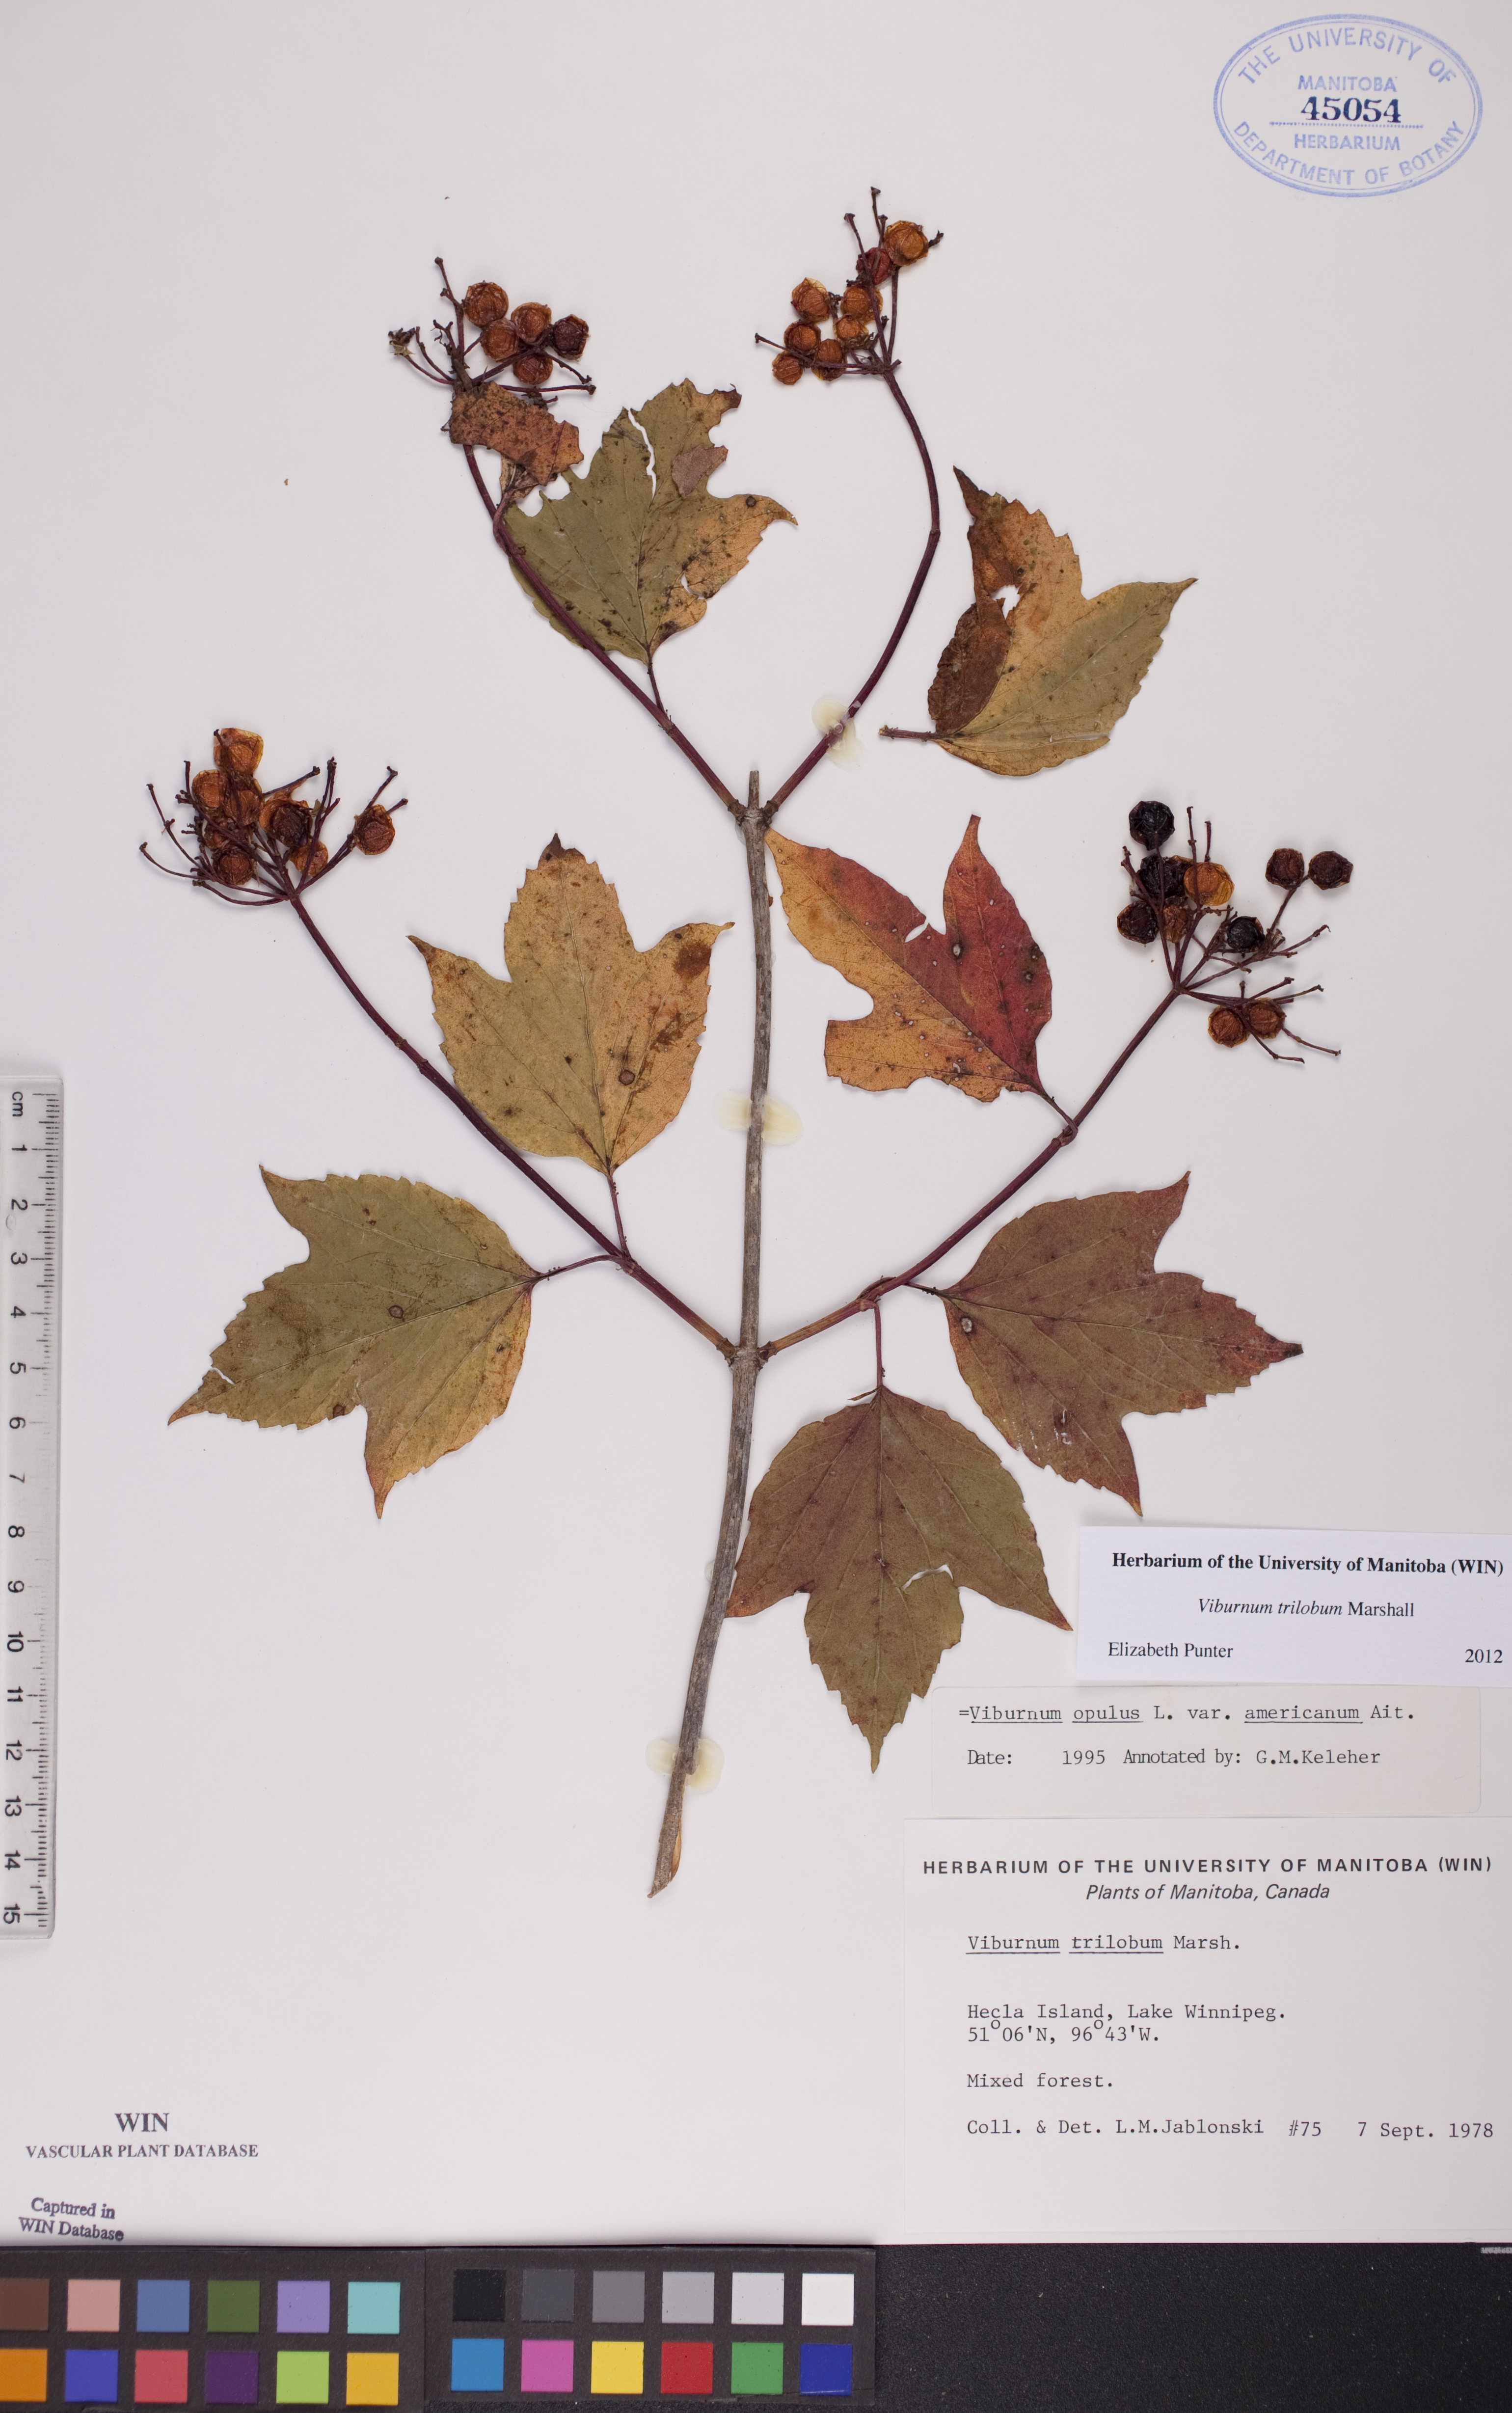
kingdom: Plantae
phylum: Tracheophyta
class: Magnoliopsida
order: Dipsacales
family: Viburnaceae
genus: Viburnum
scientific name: Viburnum trilobum
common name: American cranberrybush
